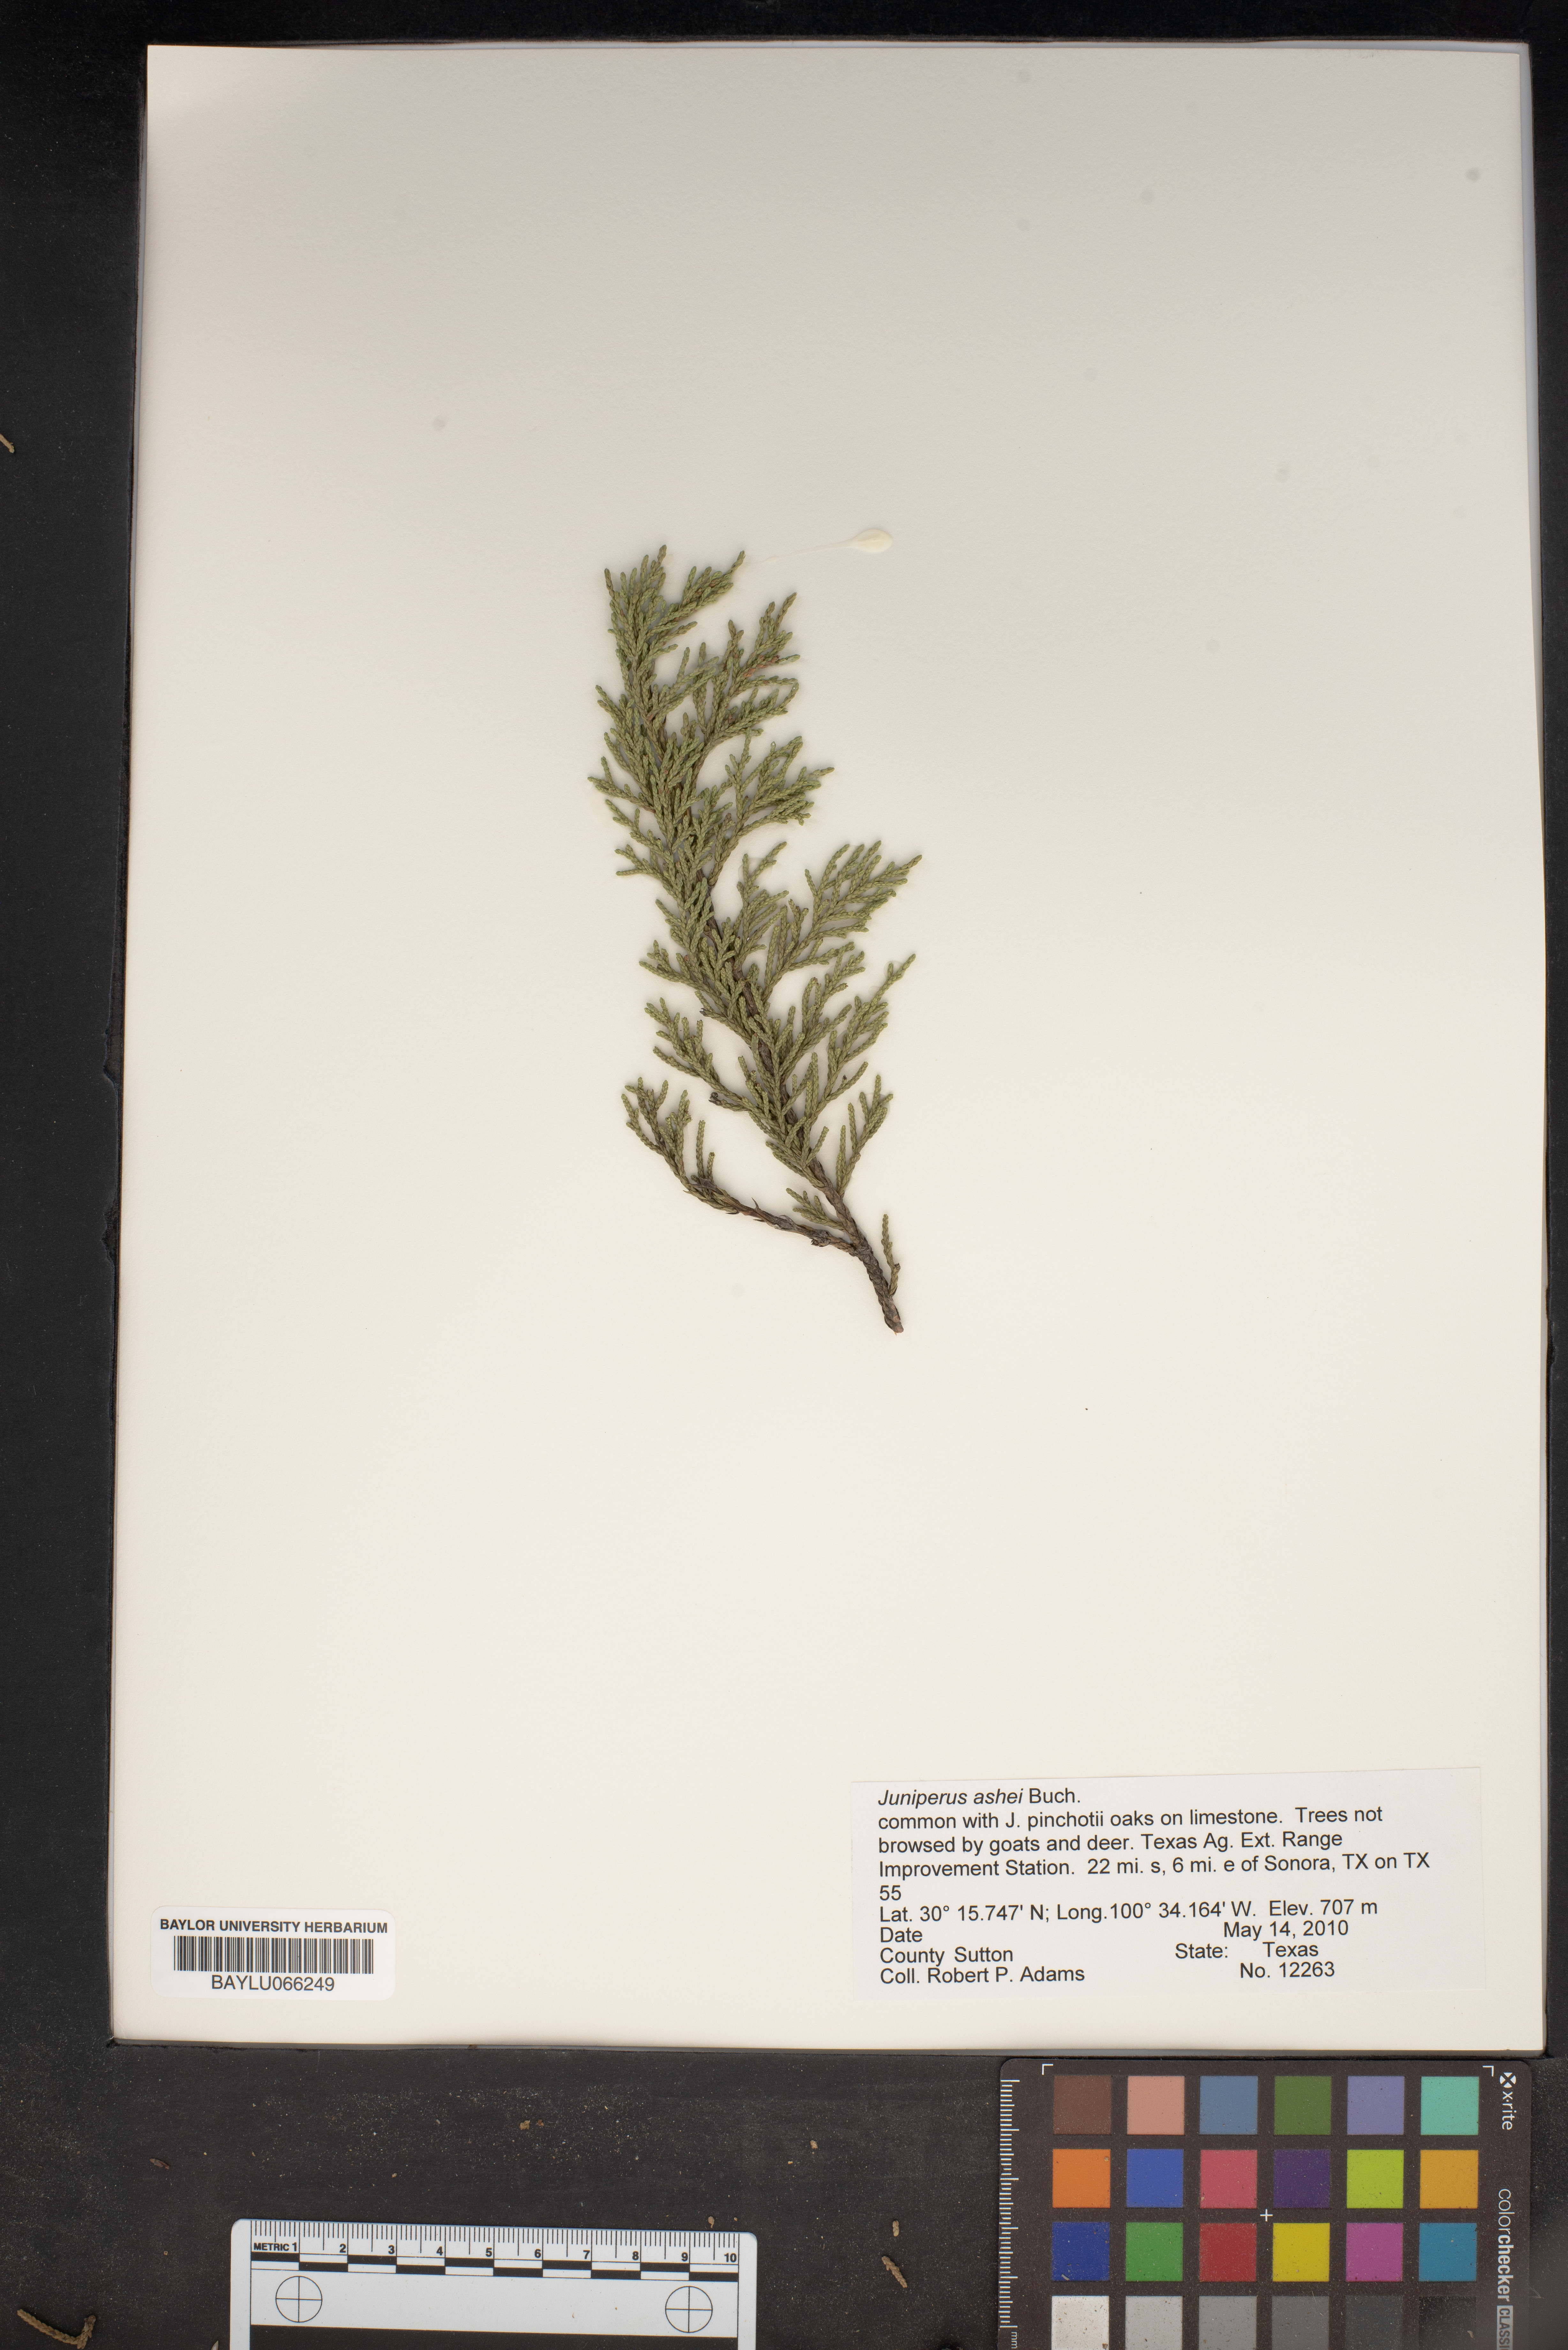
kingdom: Plantae
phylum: Tracheophyta
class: Pinopsida
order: Pinales
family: Cupressaceae
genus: Juniperus
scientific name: Juniperus ashei
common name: Mexican juniper
